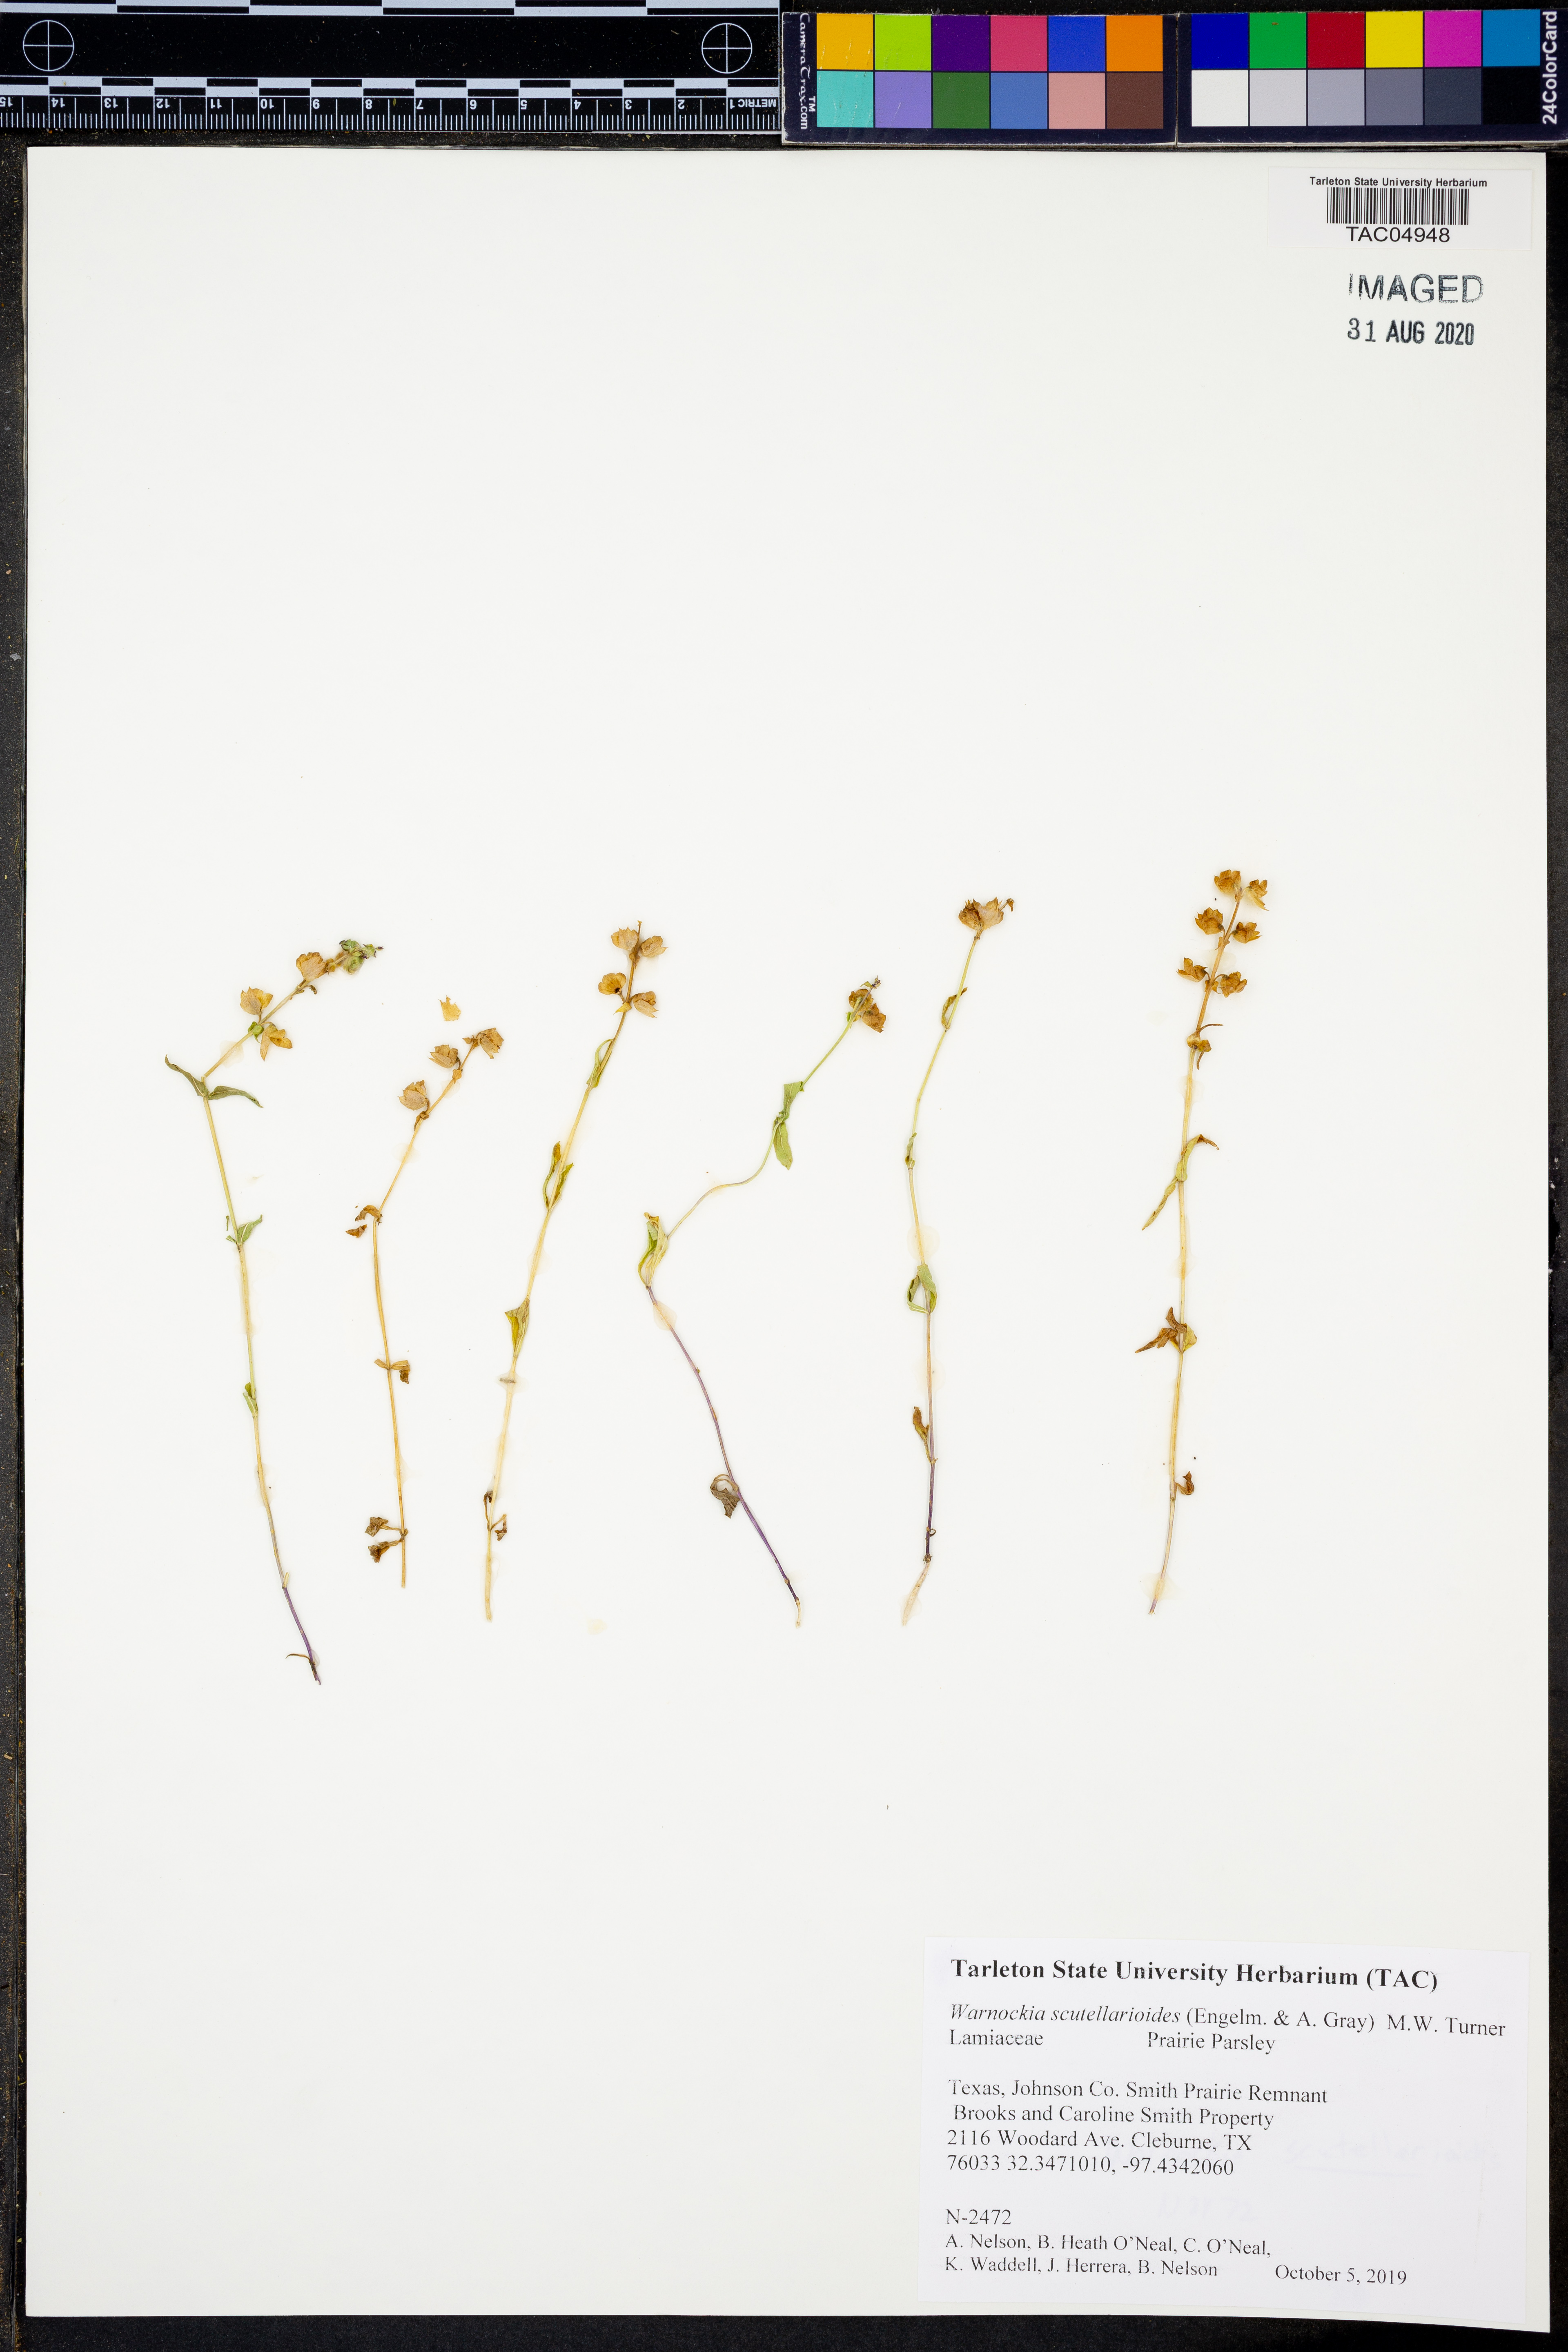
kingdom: Plantae
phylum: Tracheophyta
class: Magnoliopsida
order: Lamiales
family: Lamiaceae
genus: Warnockia
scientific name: Warnockia scutellarioides
